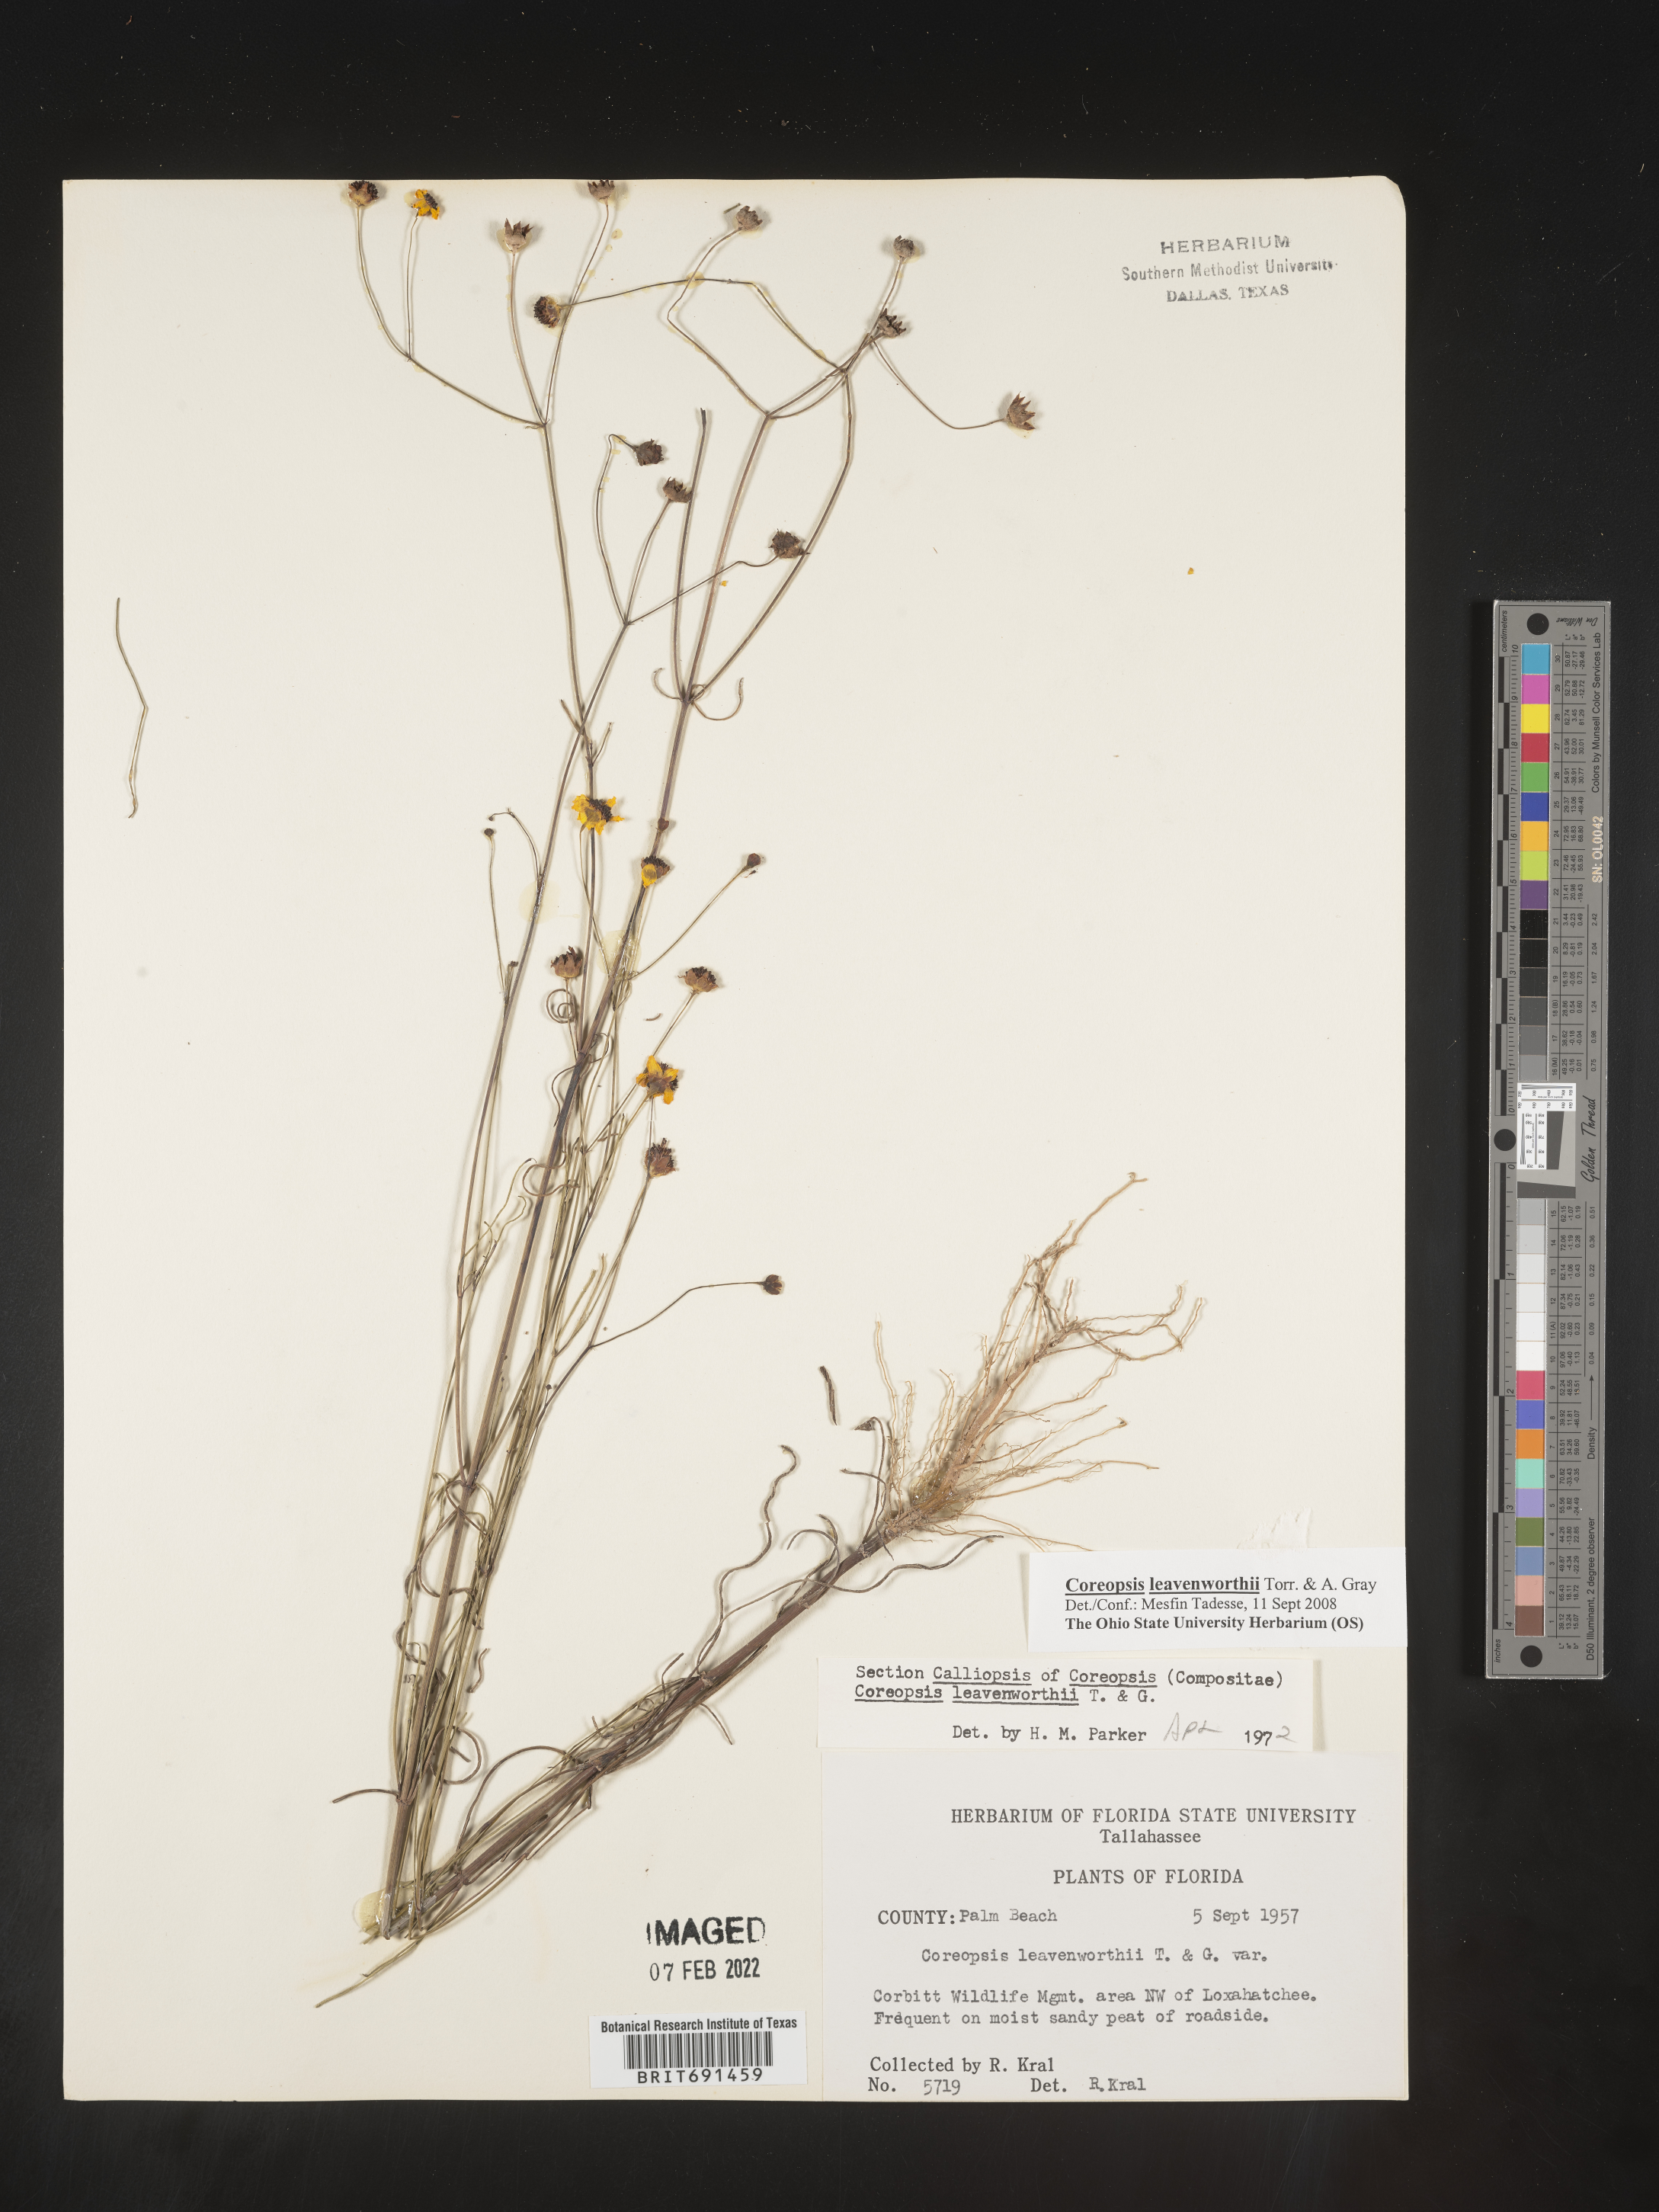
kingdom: Plantae
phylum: Tracheophyta
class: Magnoliopsida
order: Asterales
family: Asteraceae
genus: Coreopsis
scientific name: Coreopsis leavenworthii
